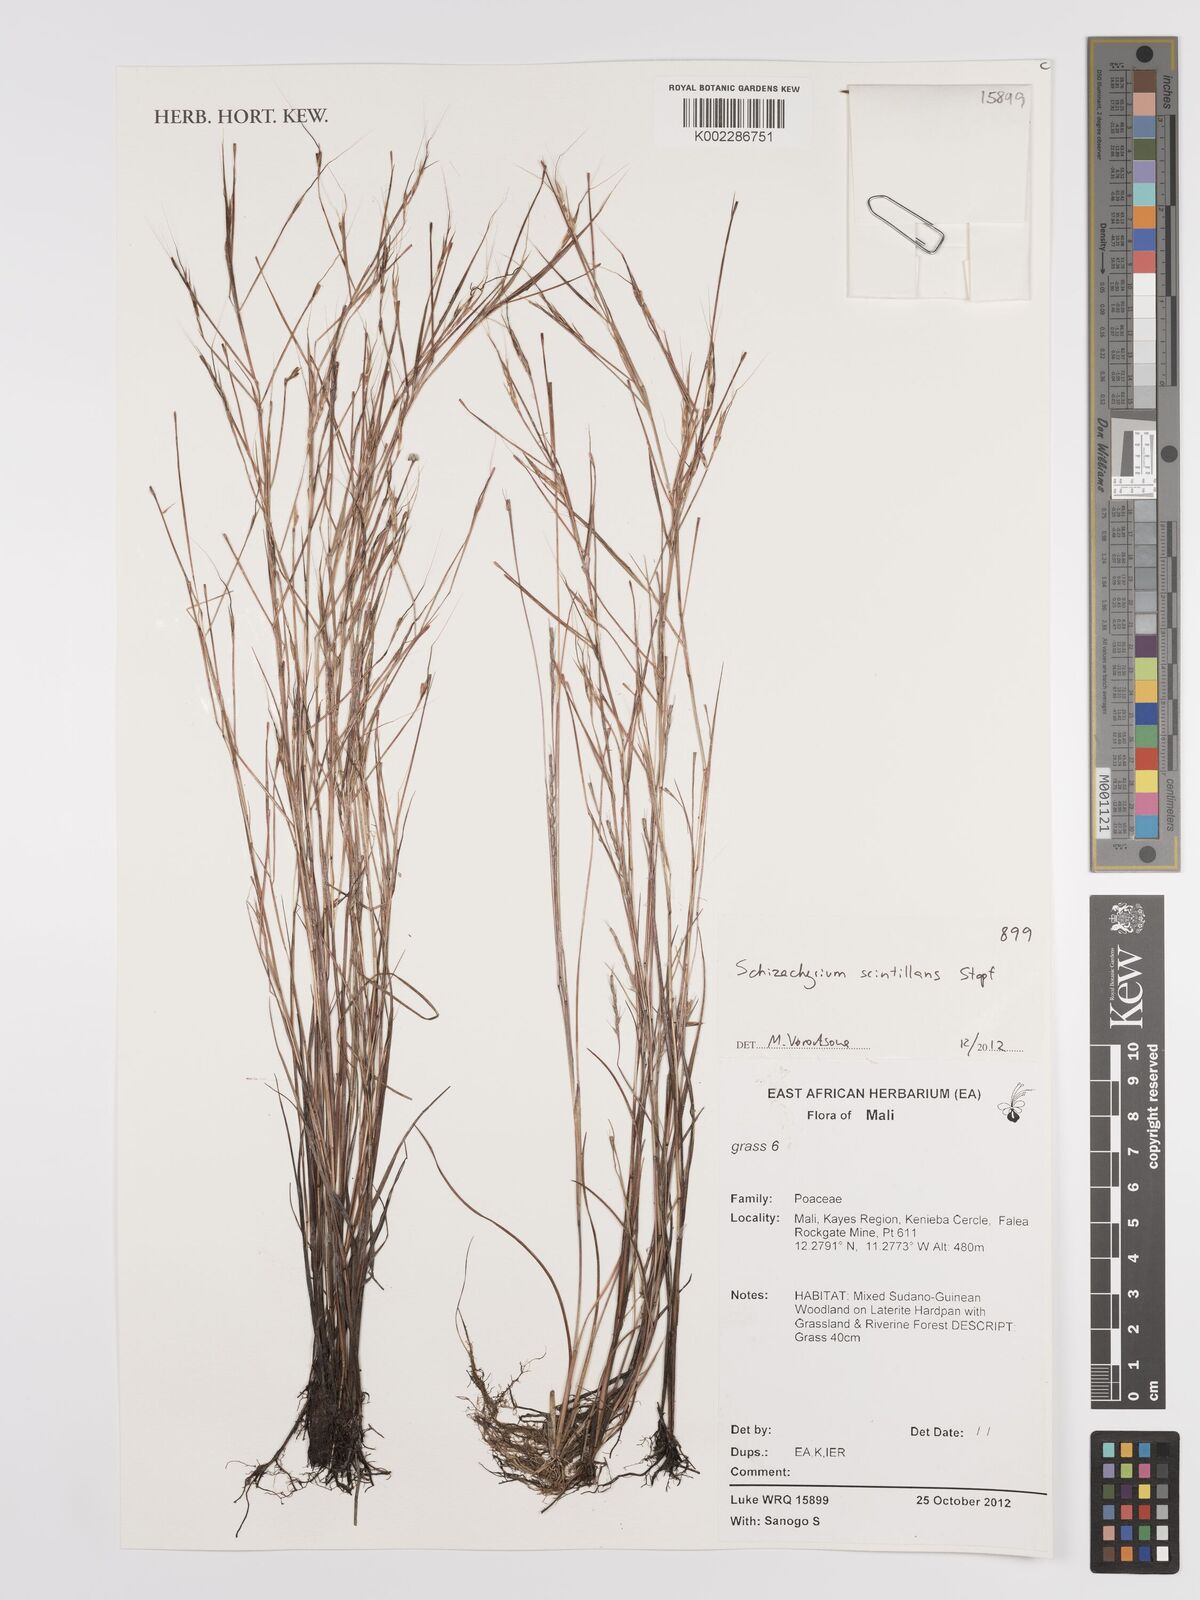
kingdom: Plantae
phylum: Tracheophyta
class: Liliopsida
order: Poales
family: Poaceae
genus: Schizachyrium
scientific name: Schizachyrium scintillans
